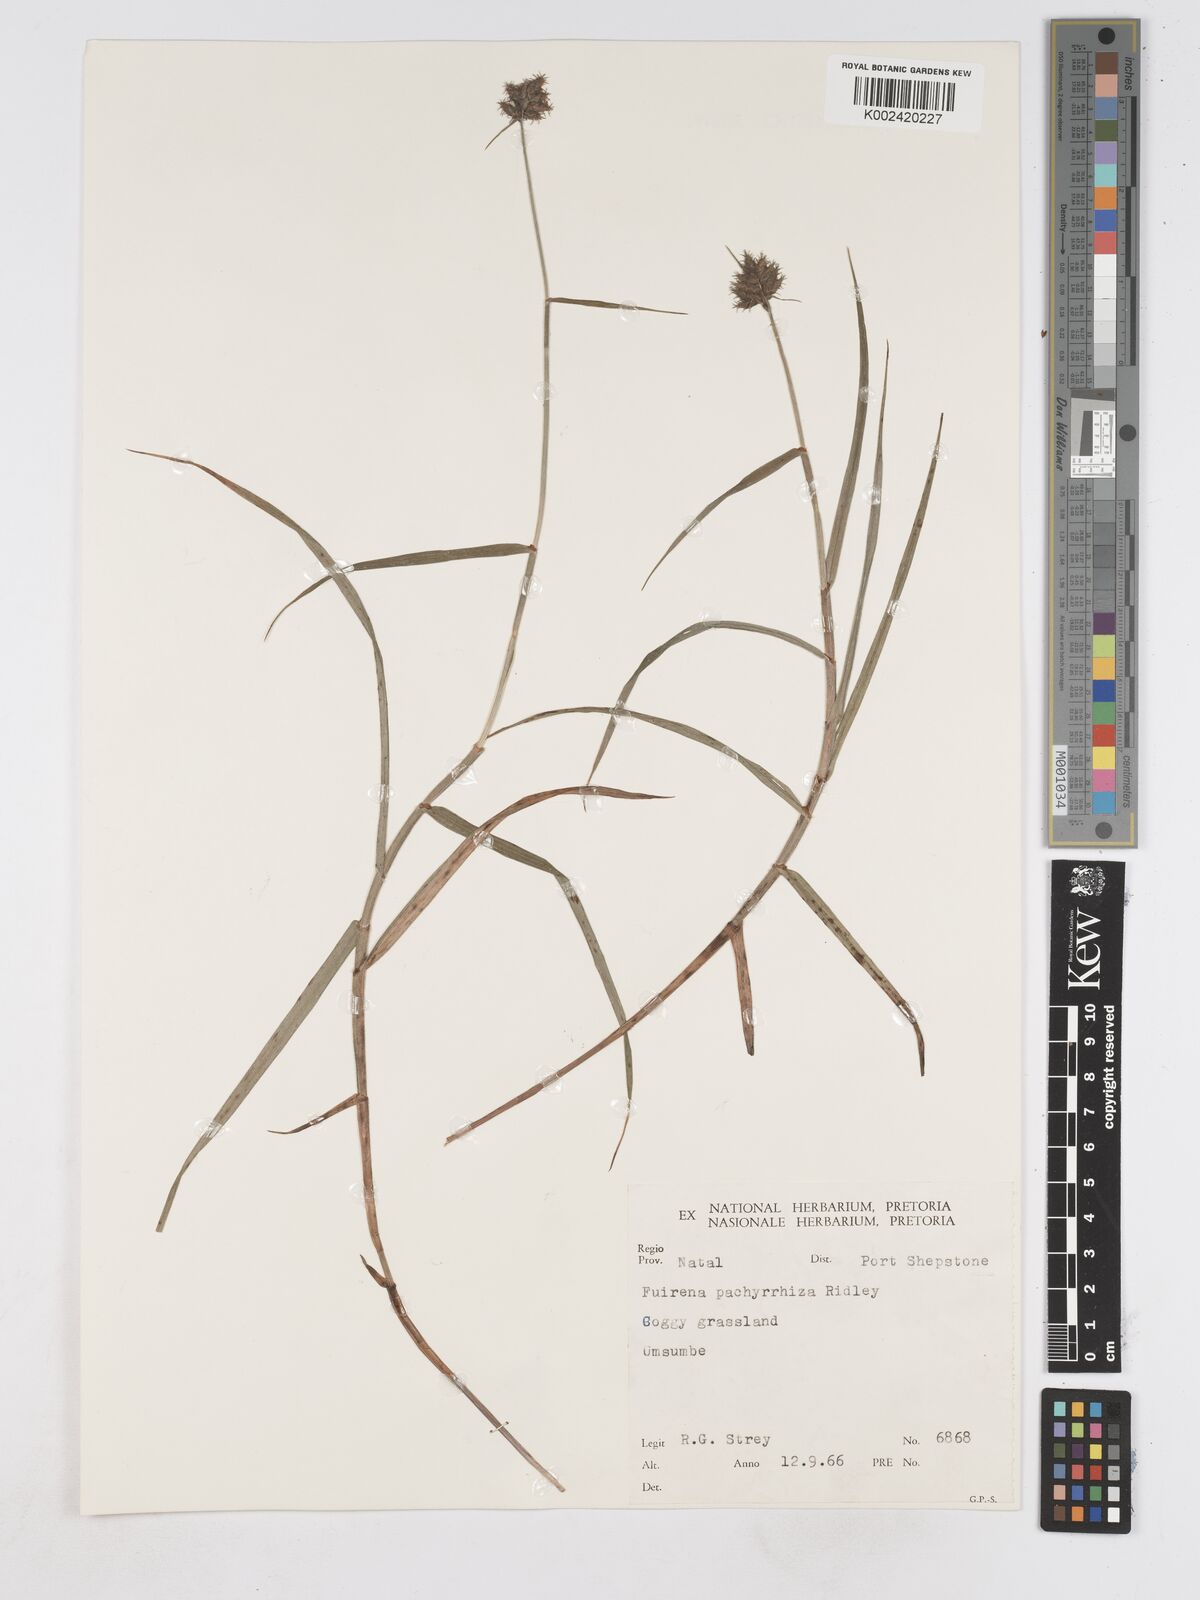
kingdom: Plantae
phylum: Tracheophyta
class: Liliopsida
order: Poales
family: Cyperaceae
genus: Fuirena
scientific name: Fuirena pachyrrhiza
